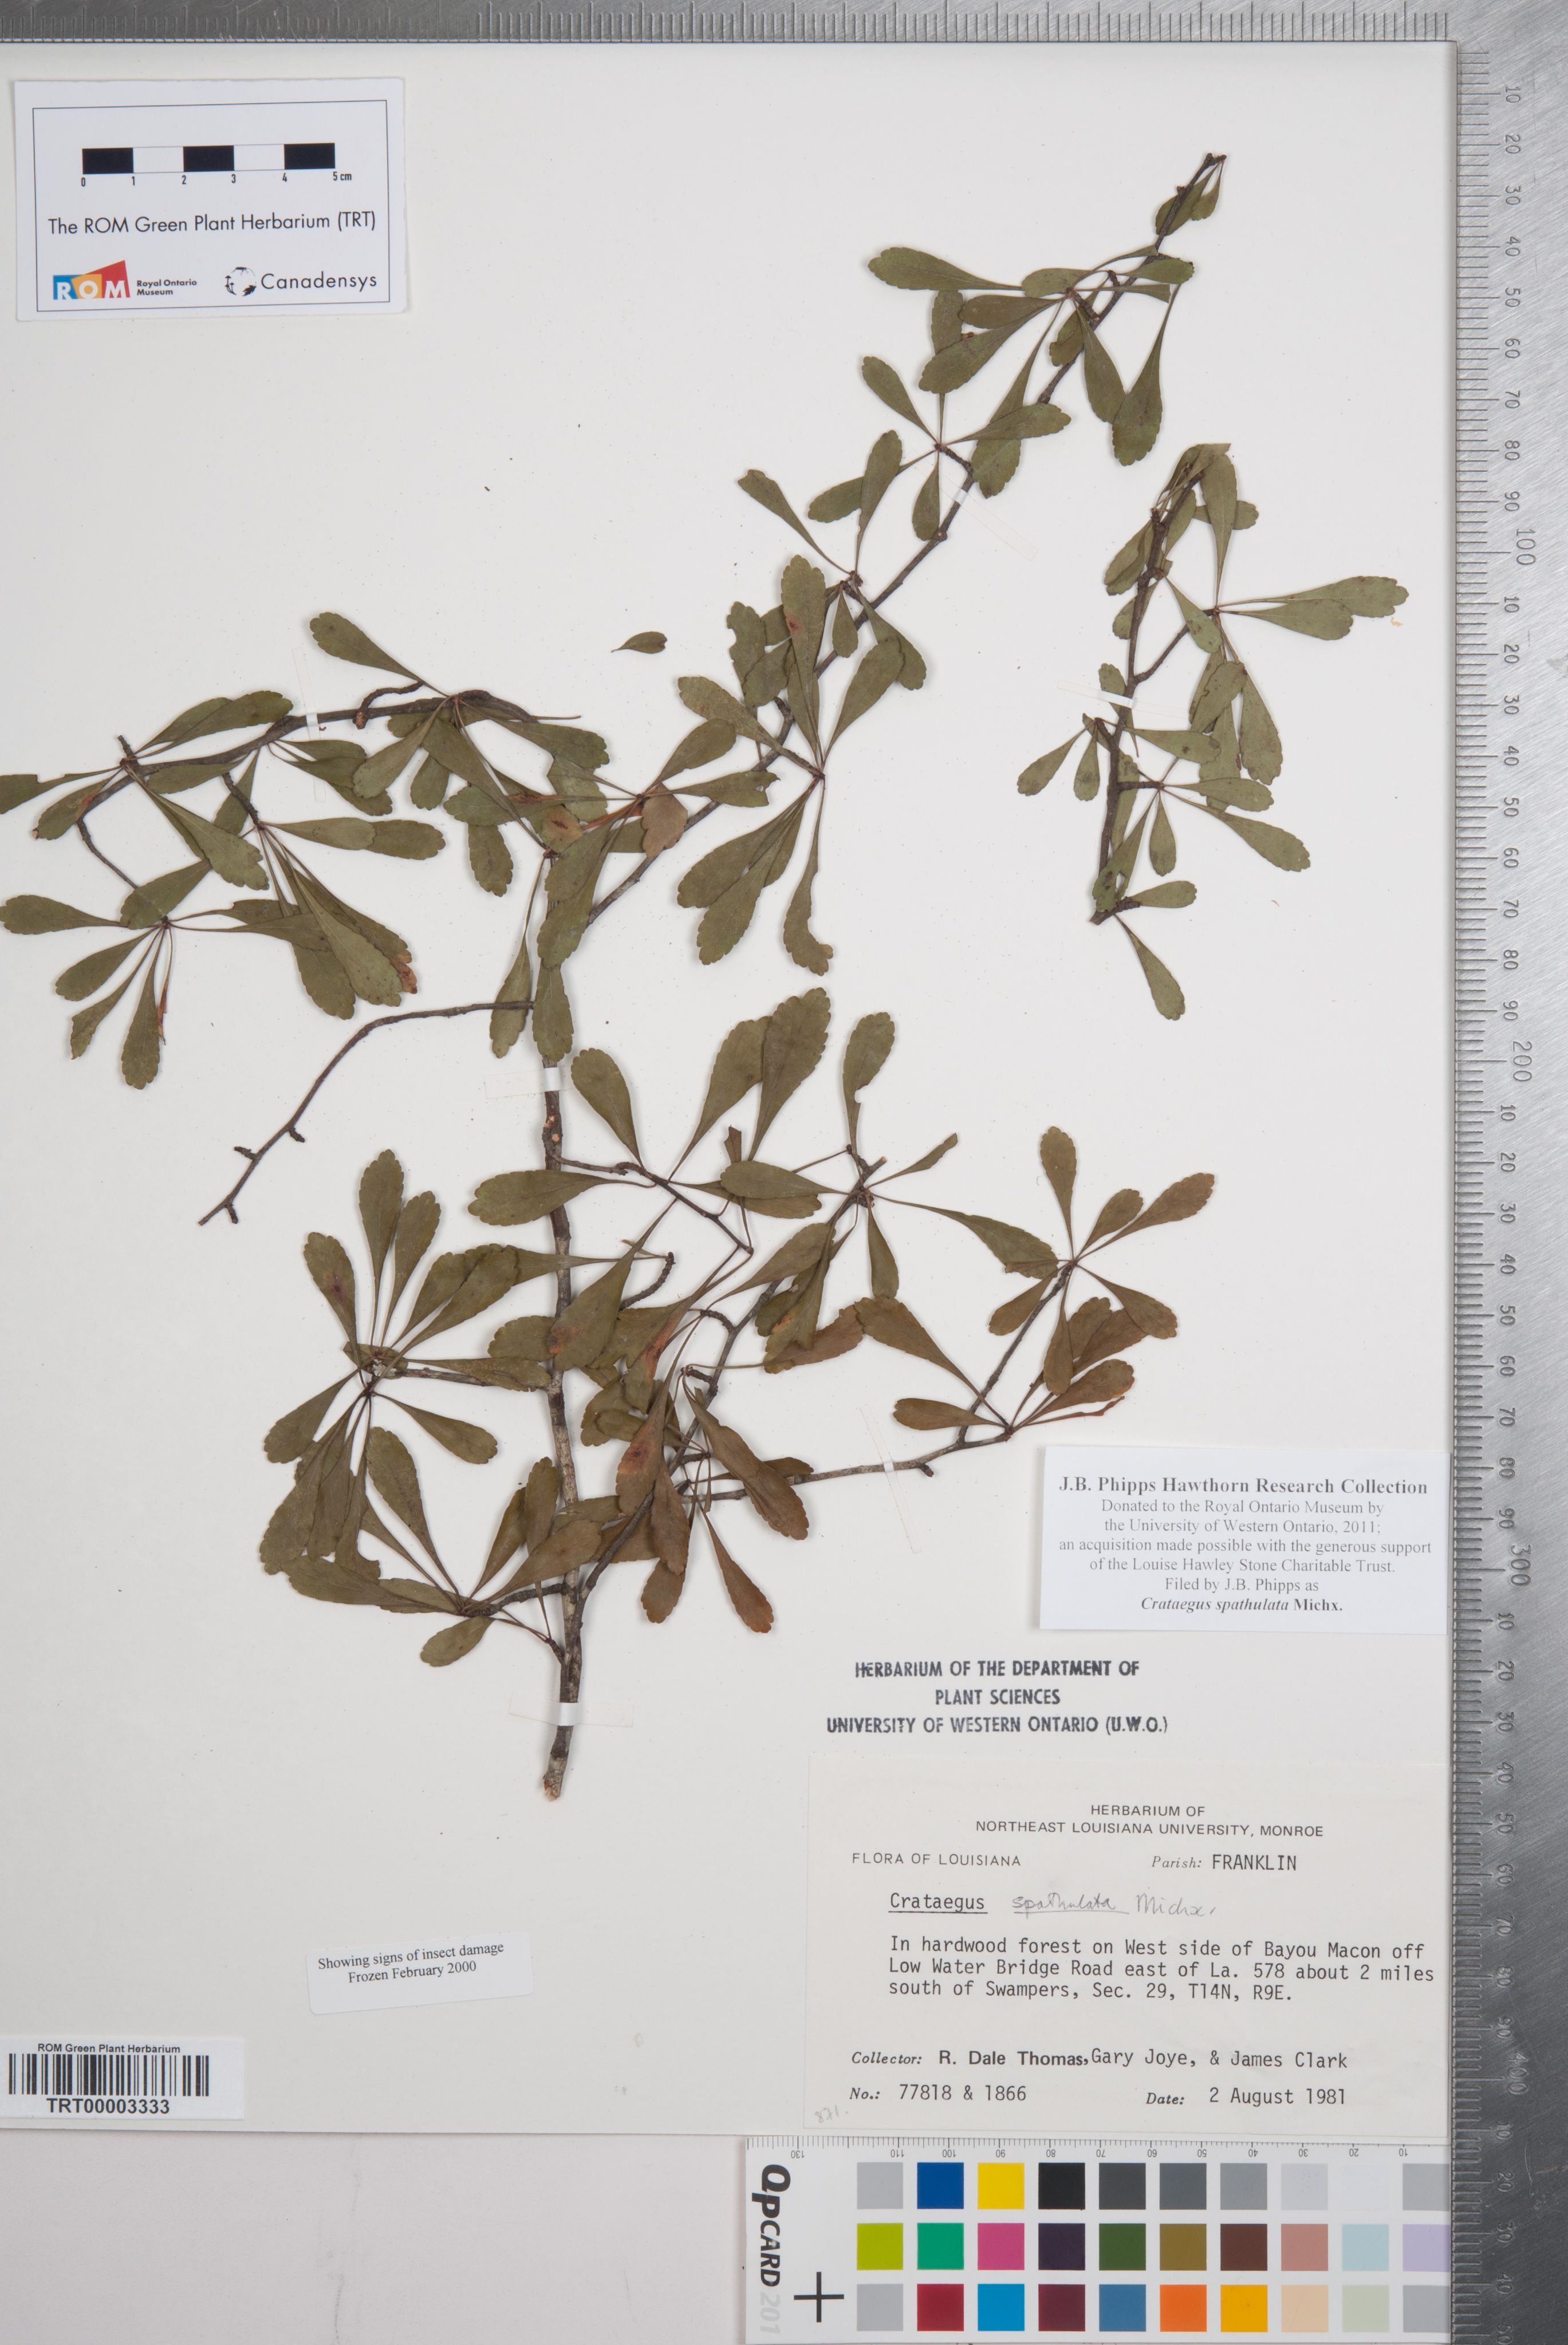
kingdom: Plantae
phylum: Tracheophyta
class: Magnoliopsida
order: Rosales
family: Rosaceae
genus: Crataegus
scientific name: Crataegus spathulata
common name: Littlehip hawthorn
